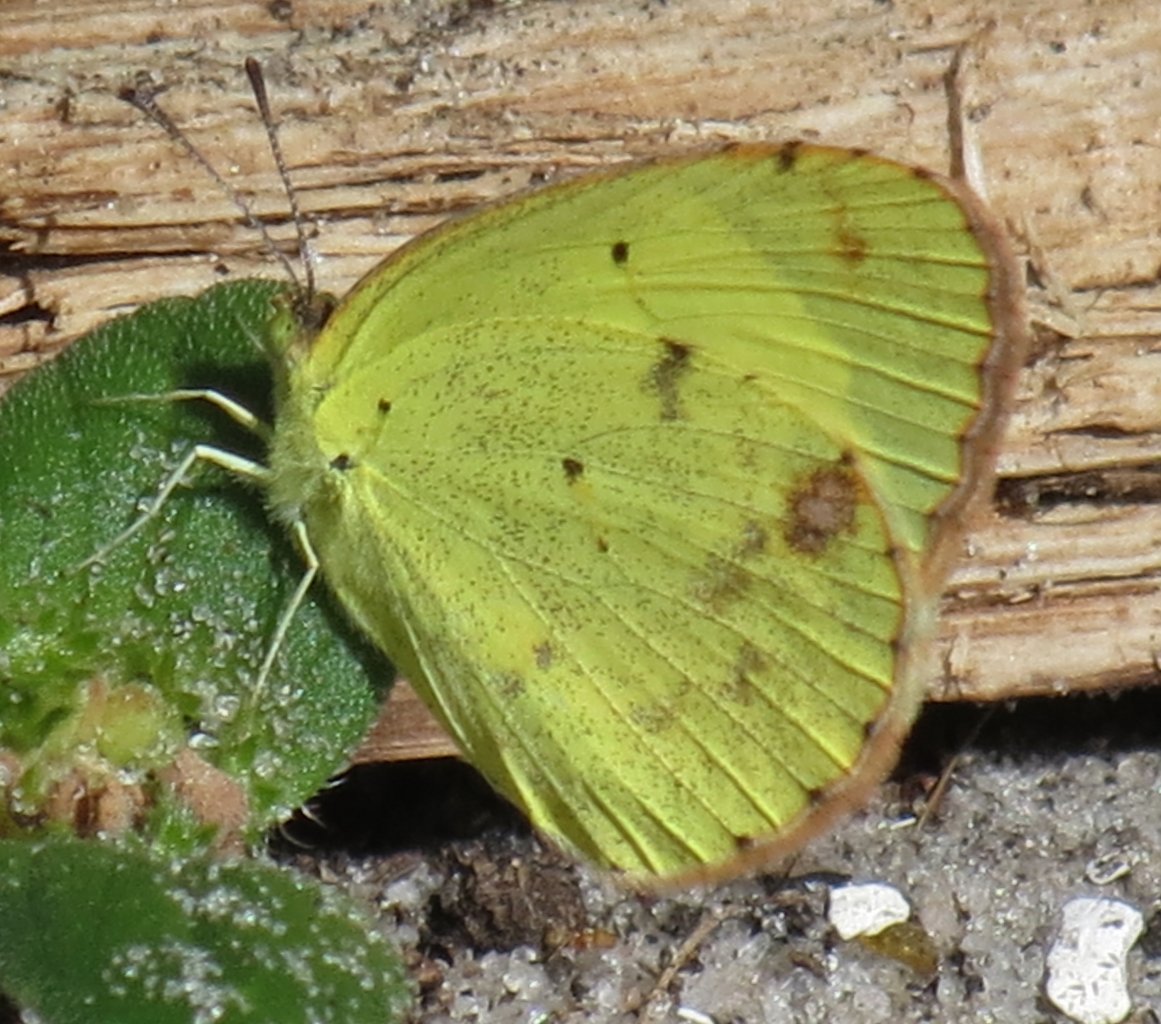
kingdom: Animalia
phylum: Arthropoda
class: Insecta
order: Lepidoptera
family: Pieridae
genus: Pyrisitia
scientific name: Pyrisitia lisa
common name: Little Yellow
